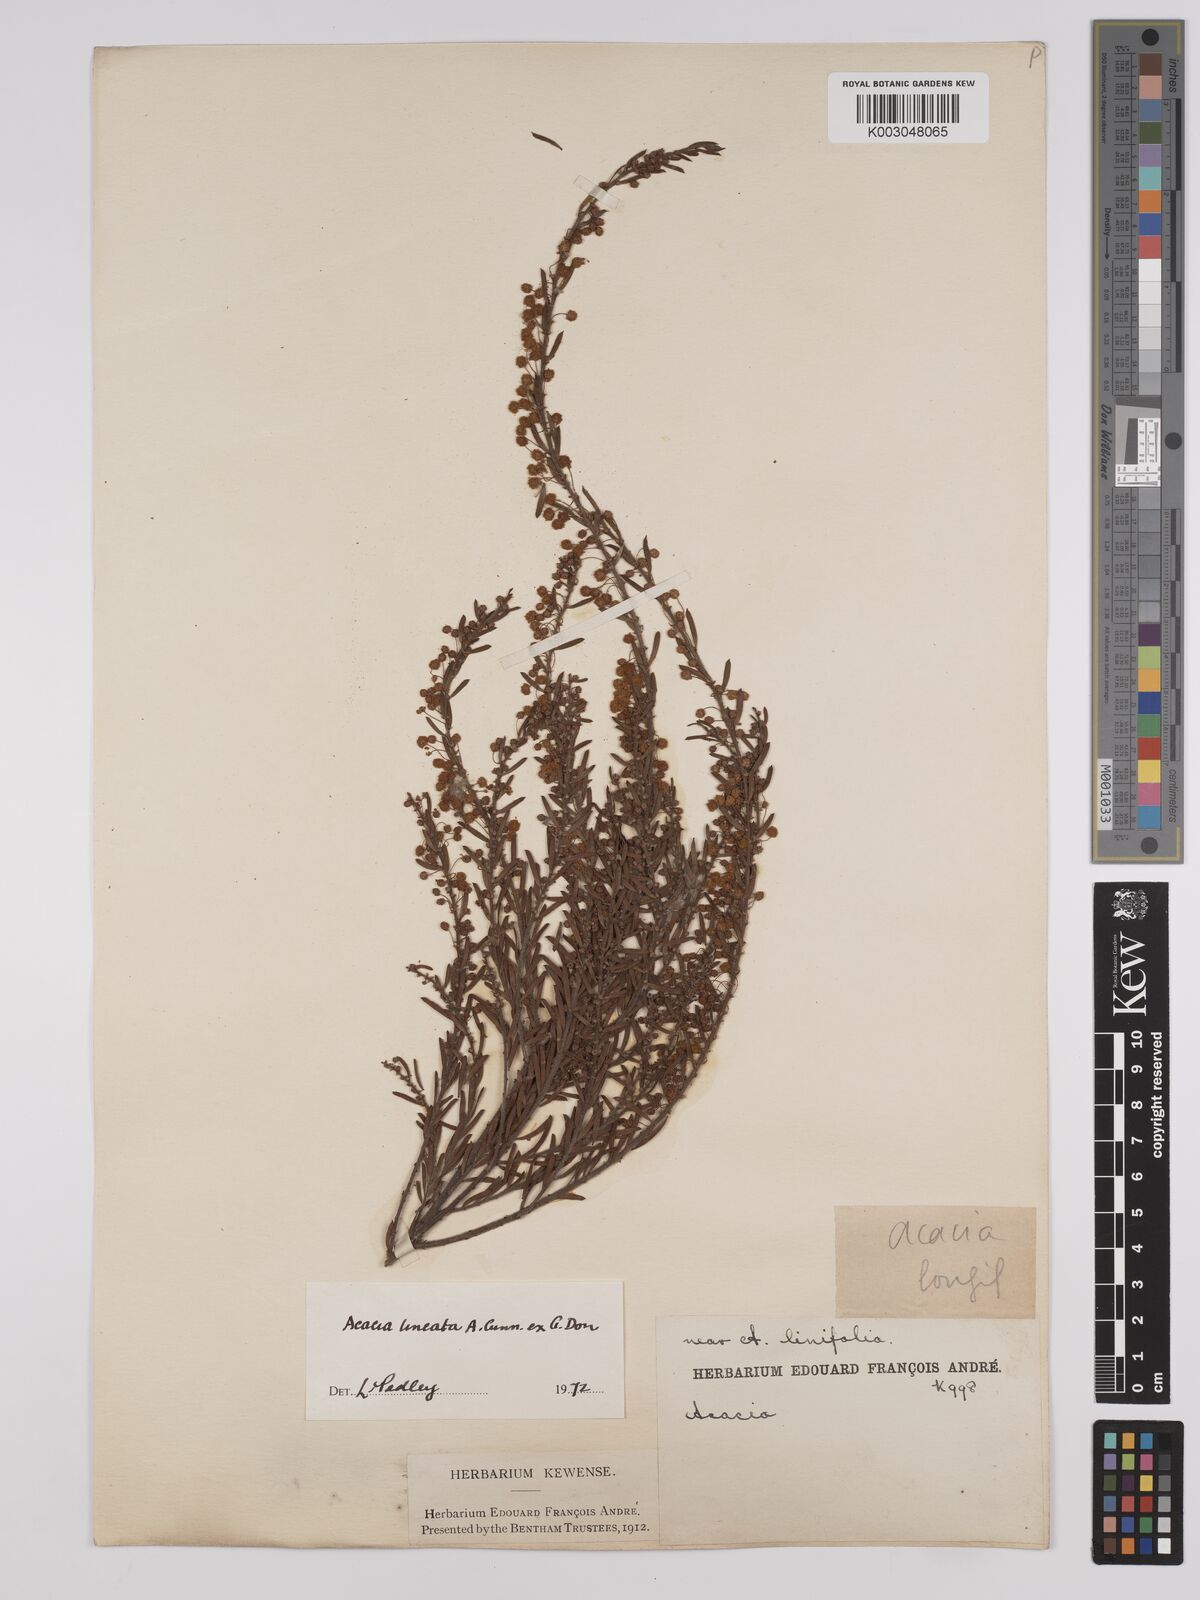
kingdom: Plantae
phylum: Tracheophyta
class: Magnoliopsida
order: Fabales
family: Fabaceae
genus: Acacia
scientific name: Acacia lineata
